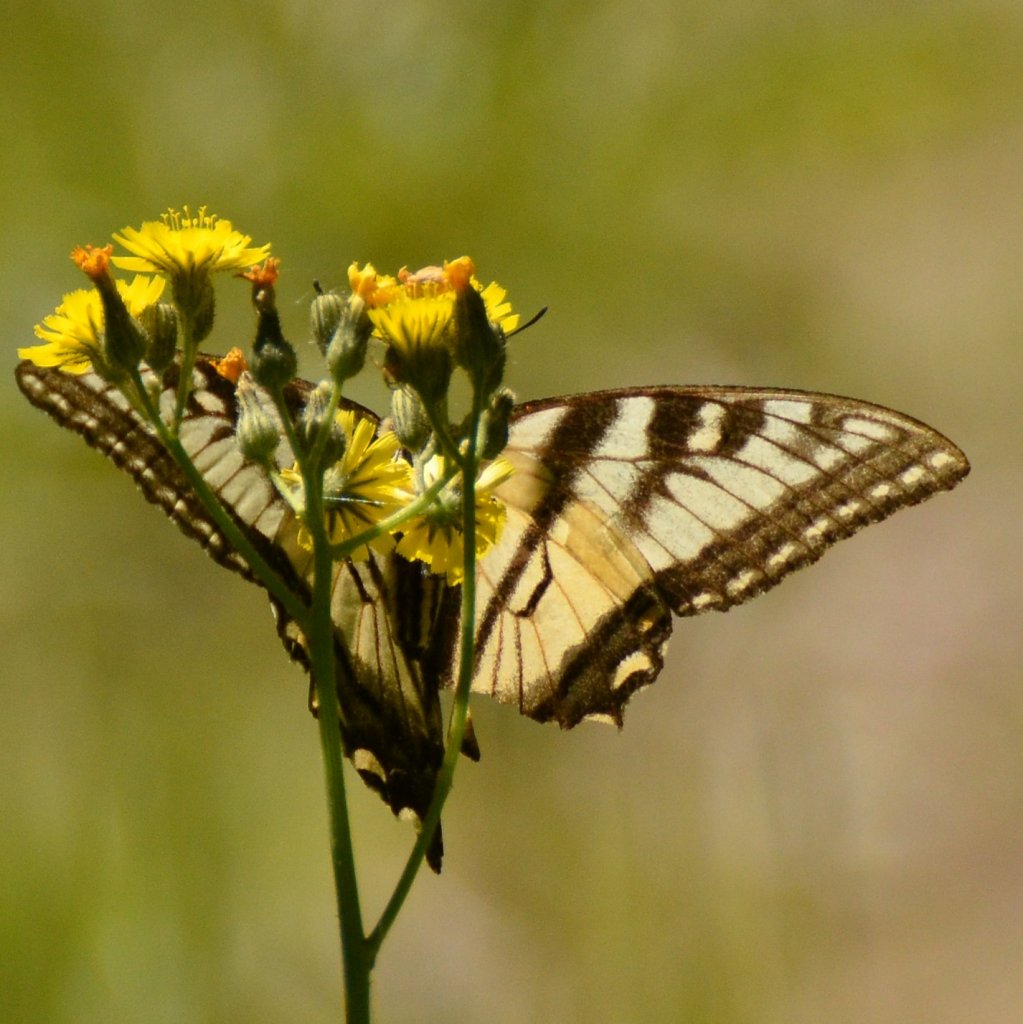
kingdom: Animalia
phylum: Arthropoda
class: Insecta
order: Lepidoptera
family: Papilionidae
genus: Pterourus
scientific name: Pterourus canadensis
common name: Canadian Tiger Swallowtail
